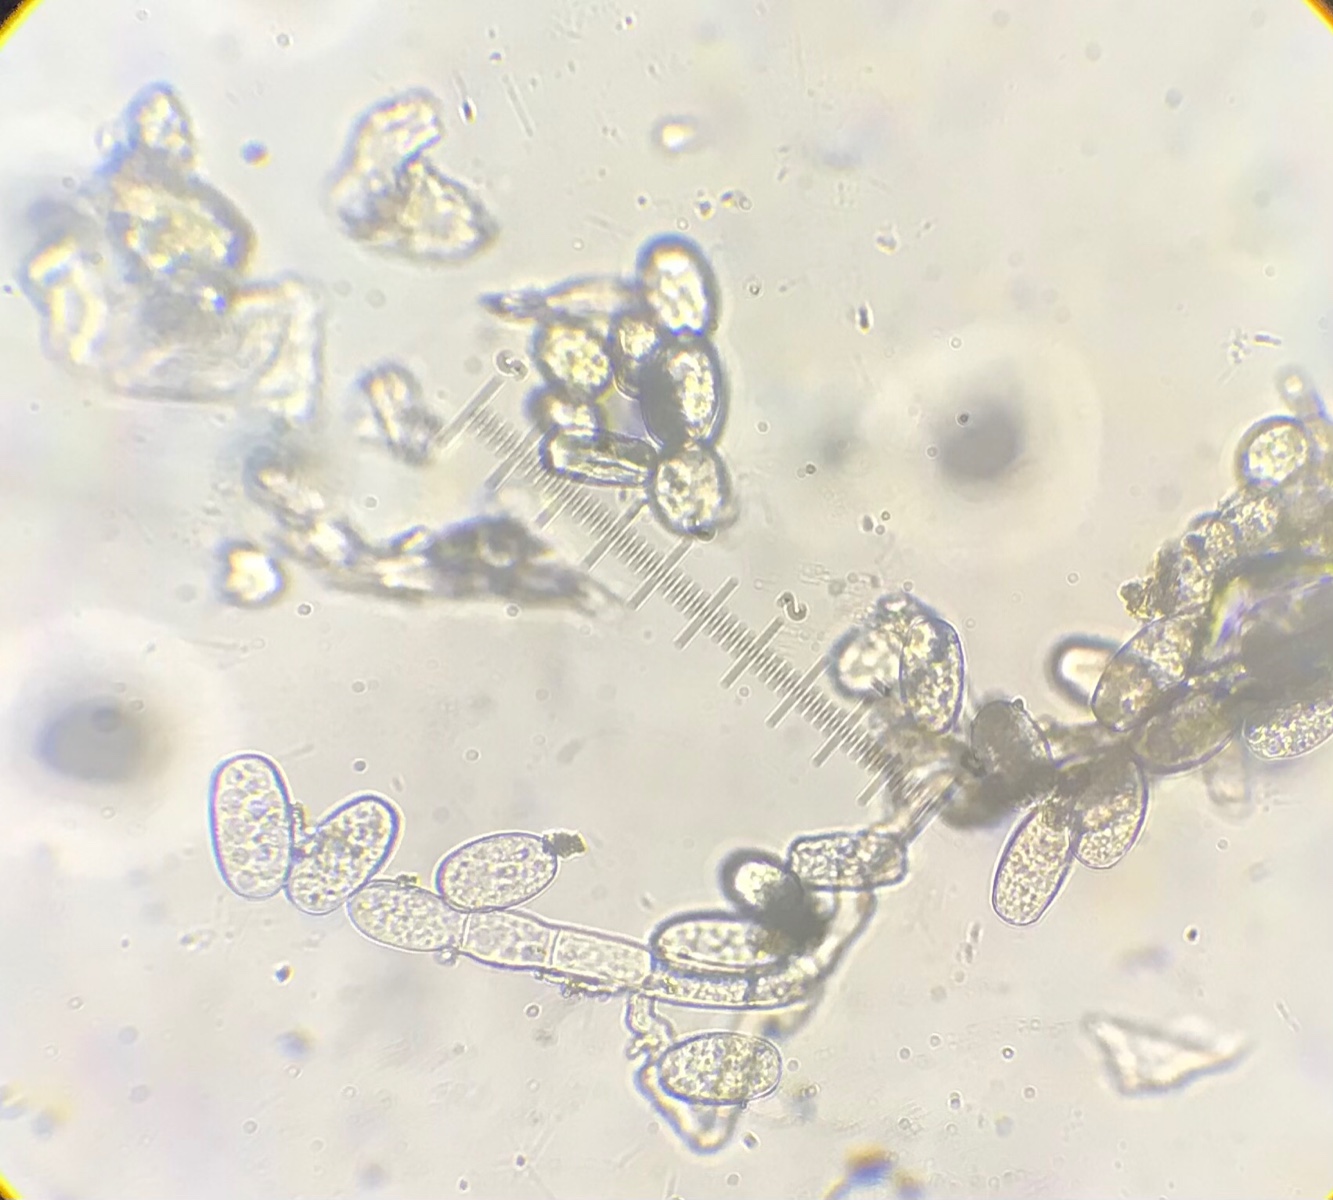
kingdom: Fungi
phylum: Ascomycota
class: Leotiomycetes
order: Helotiales
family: Erysiphaceae
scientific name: Erysiphaceae
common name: meldugfamilien
